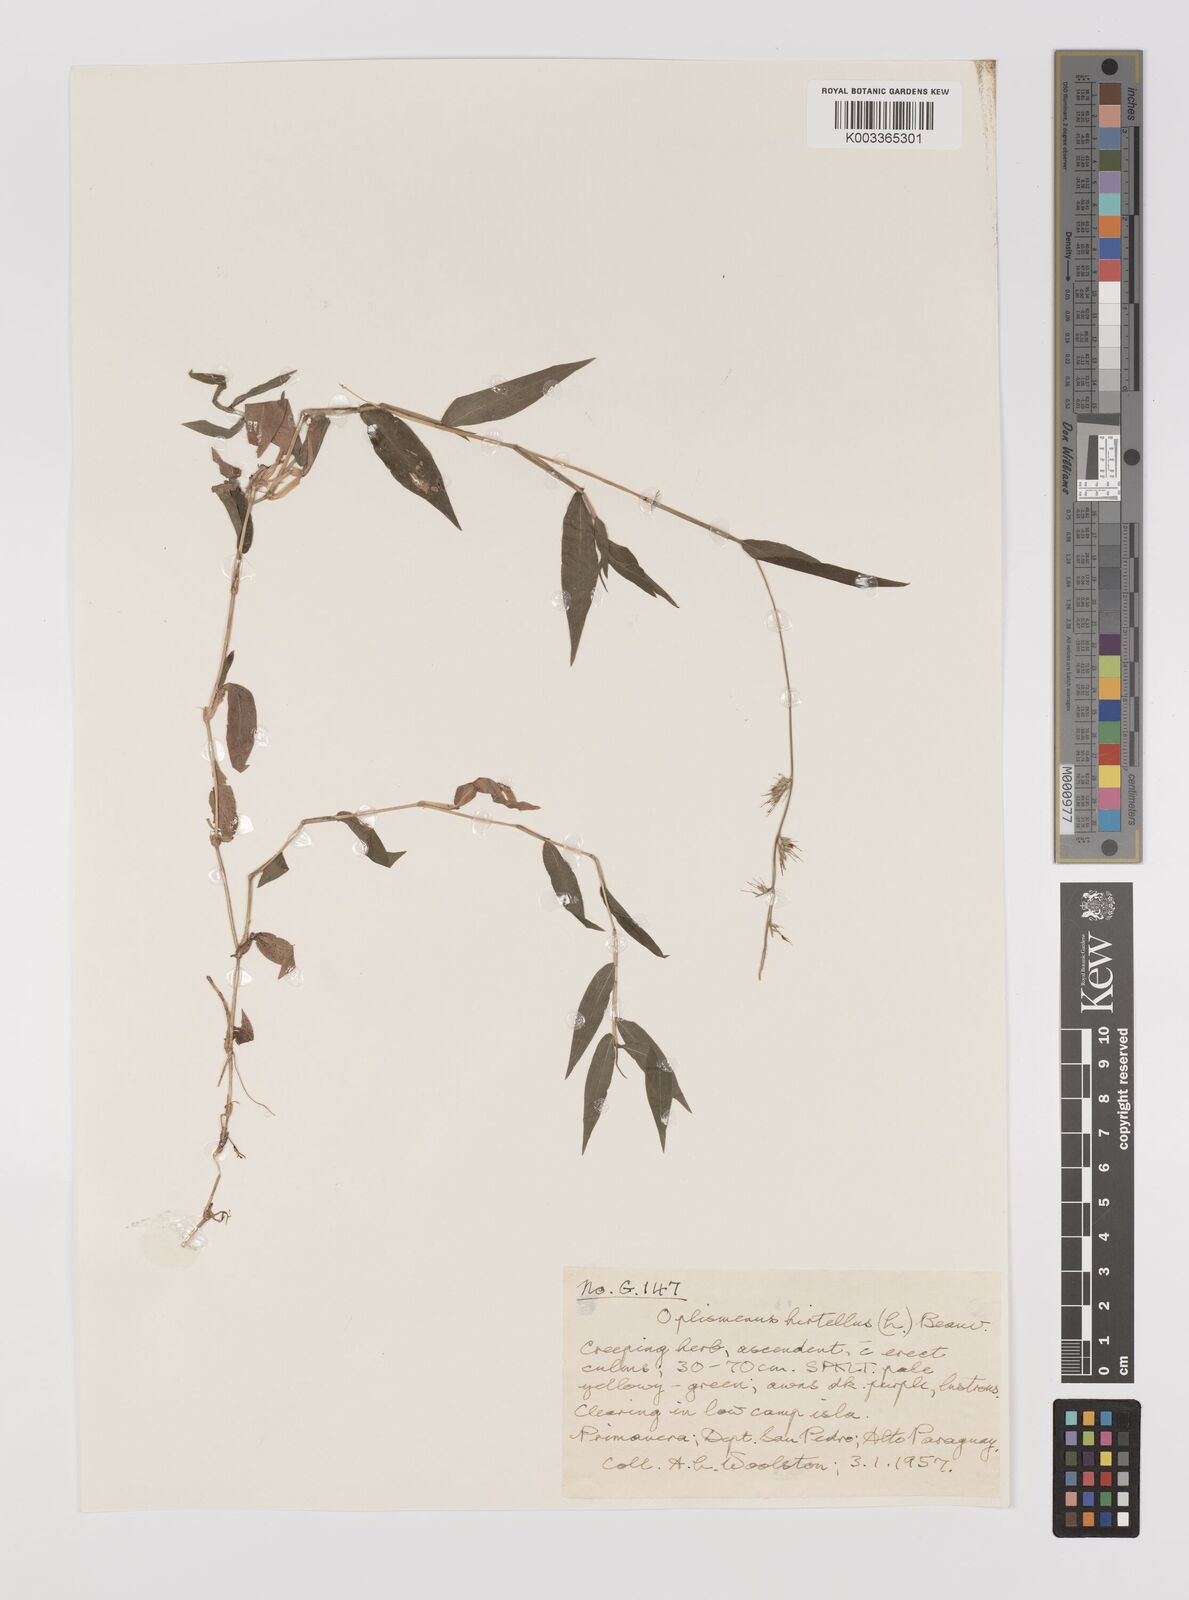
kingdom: Plantae
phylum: Tracheophyta
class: Liliopsida
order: Poales
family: Poaceae
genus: Oplismenus
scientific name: Oplismenus hirtellus
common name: Basketgrass
